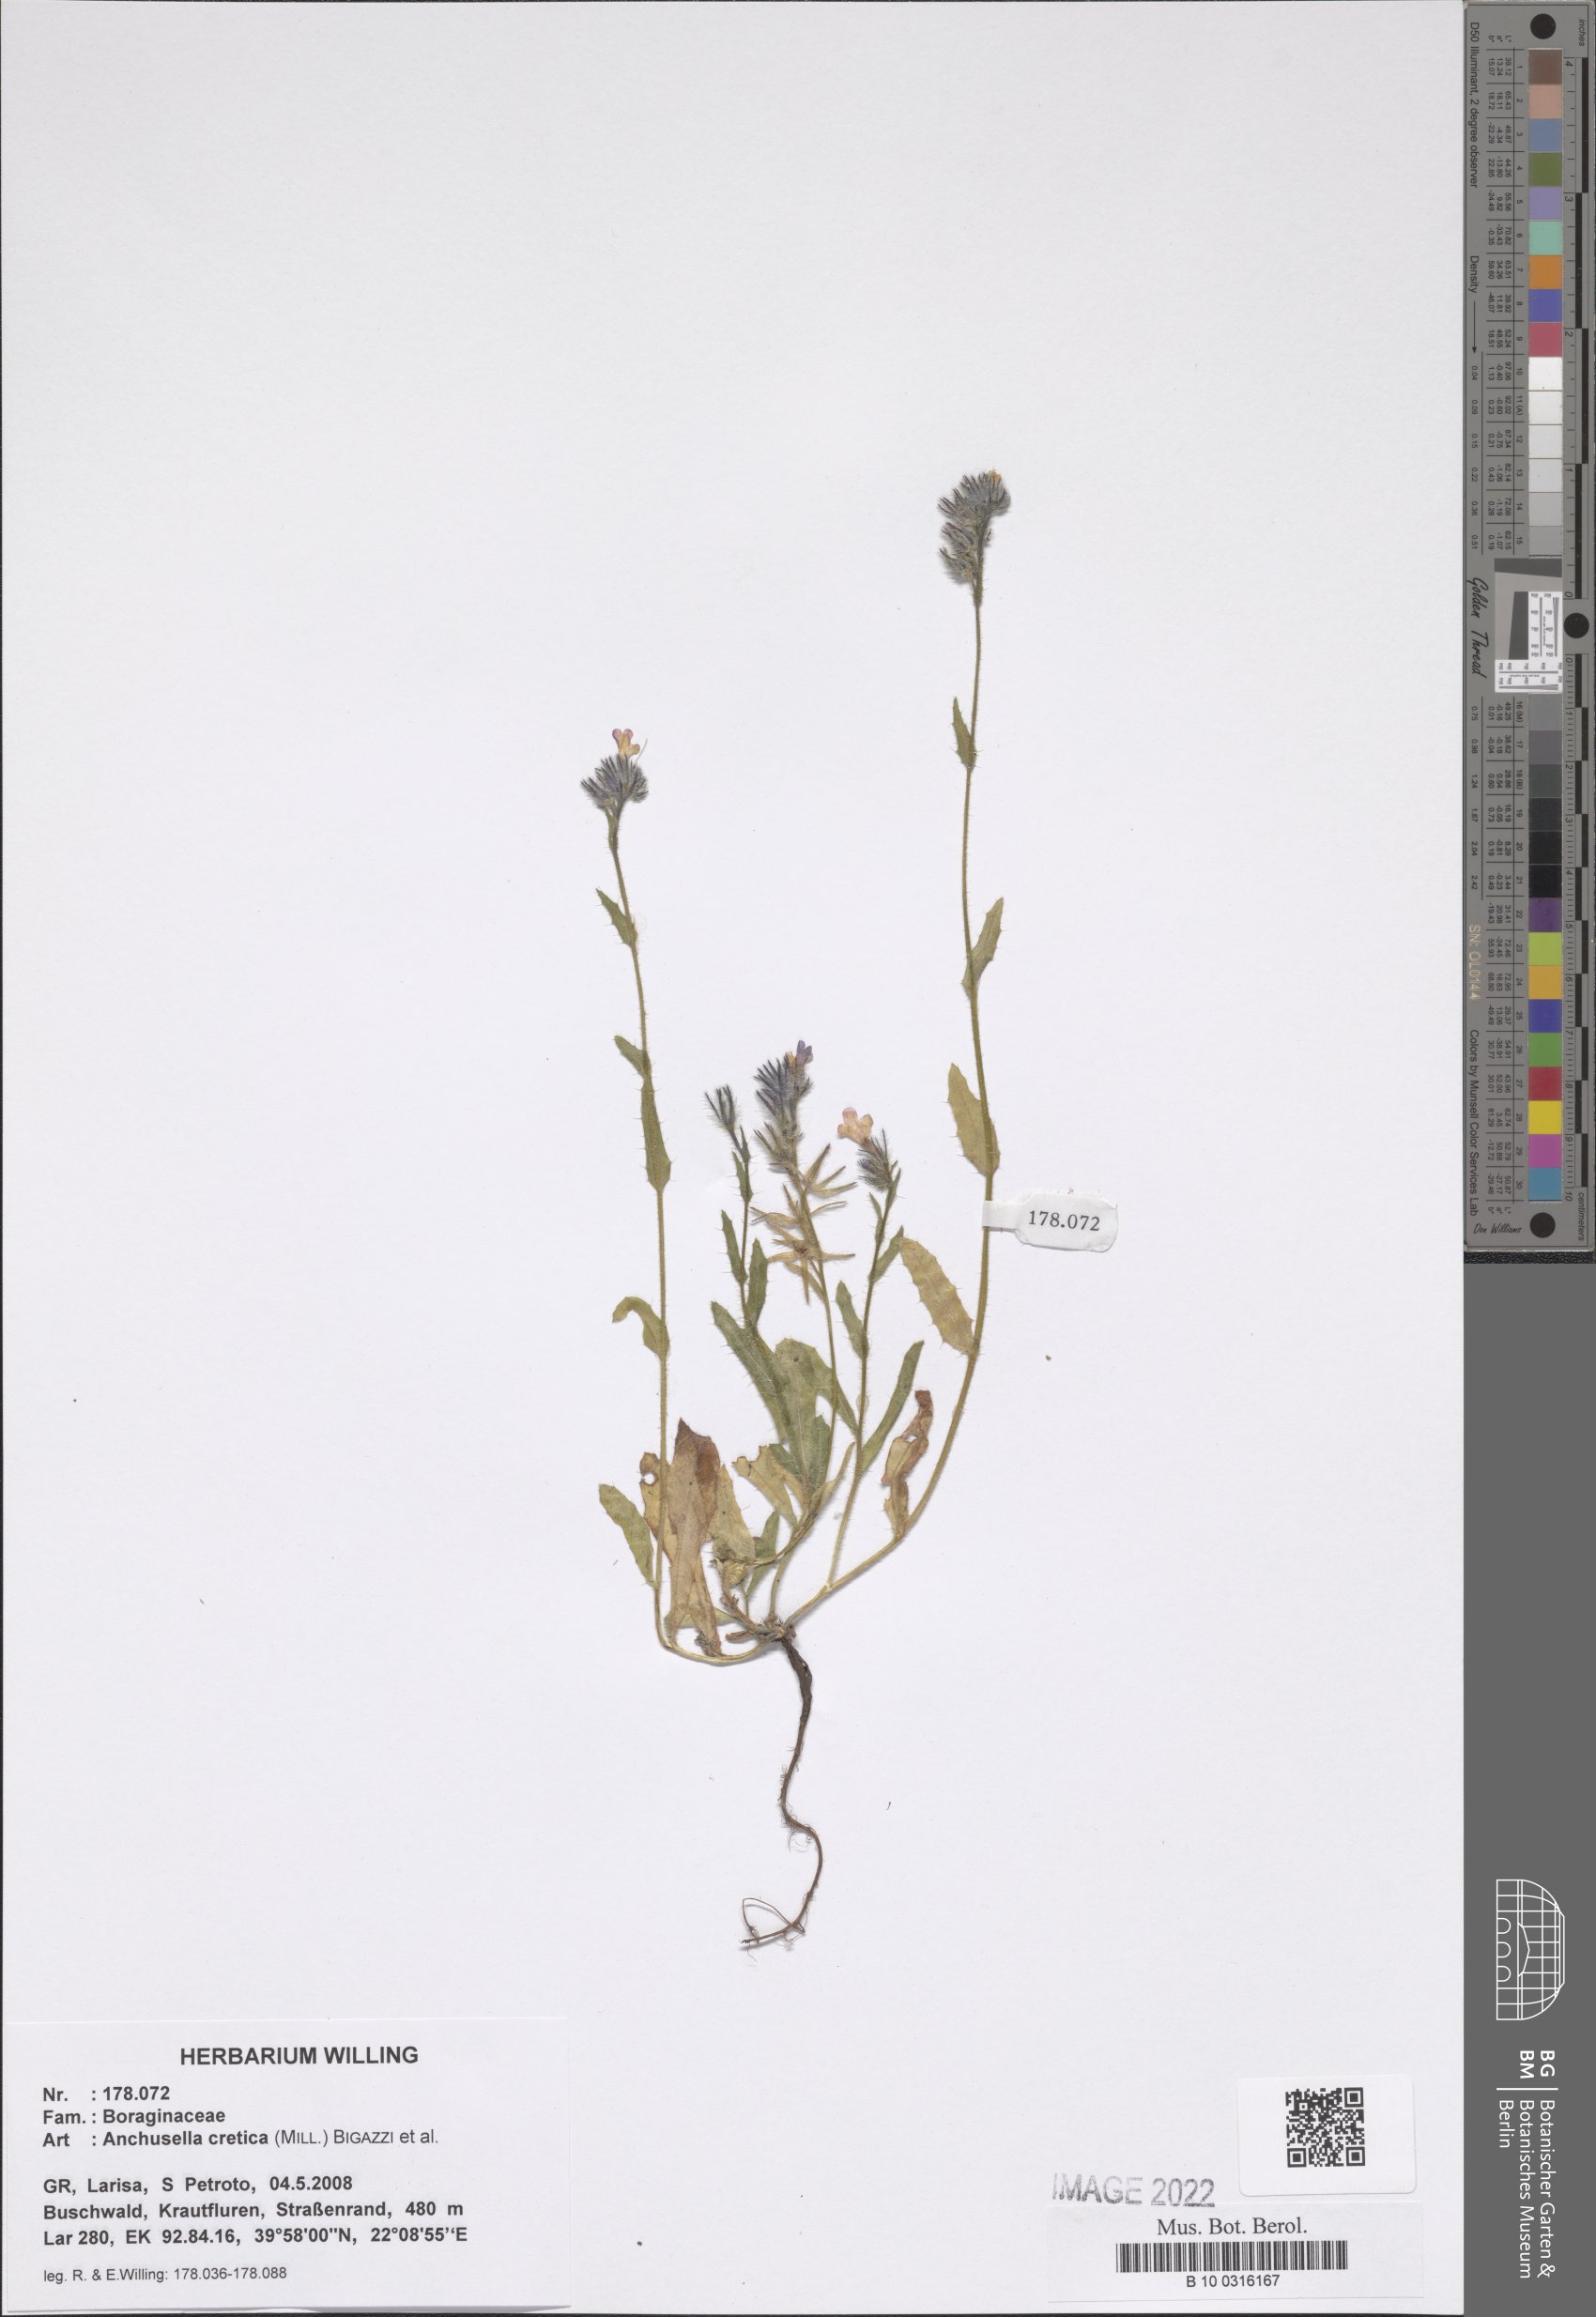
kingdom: Plantae
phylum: Tracheophyta
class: Magnoliopsida
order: Boraginales
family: Boraginaceae
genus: Anchusella
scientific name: Anchusella cretica
